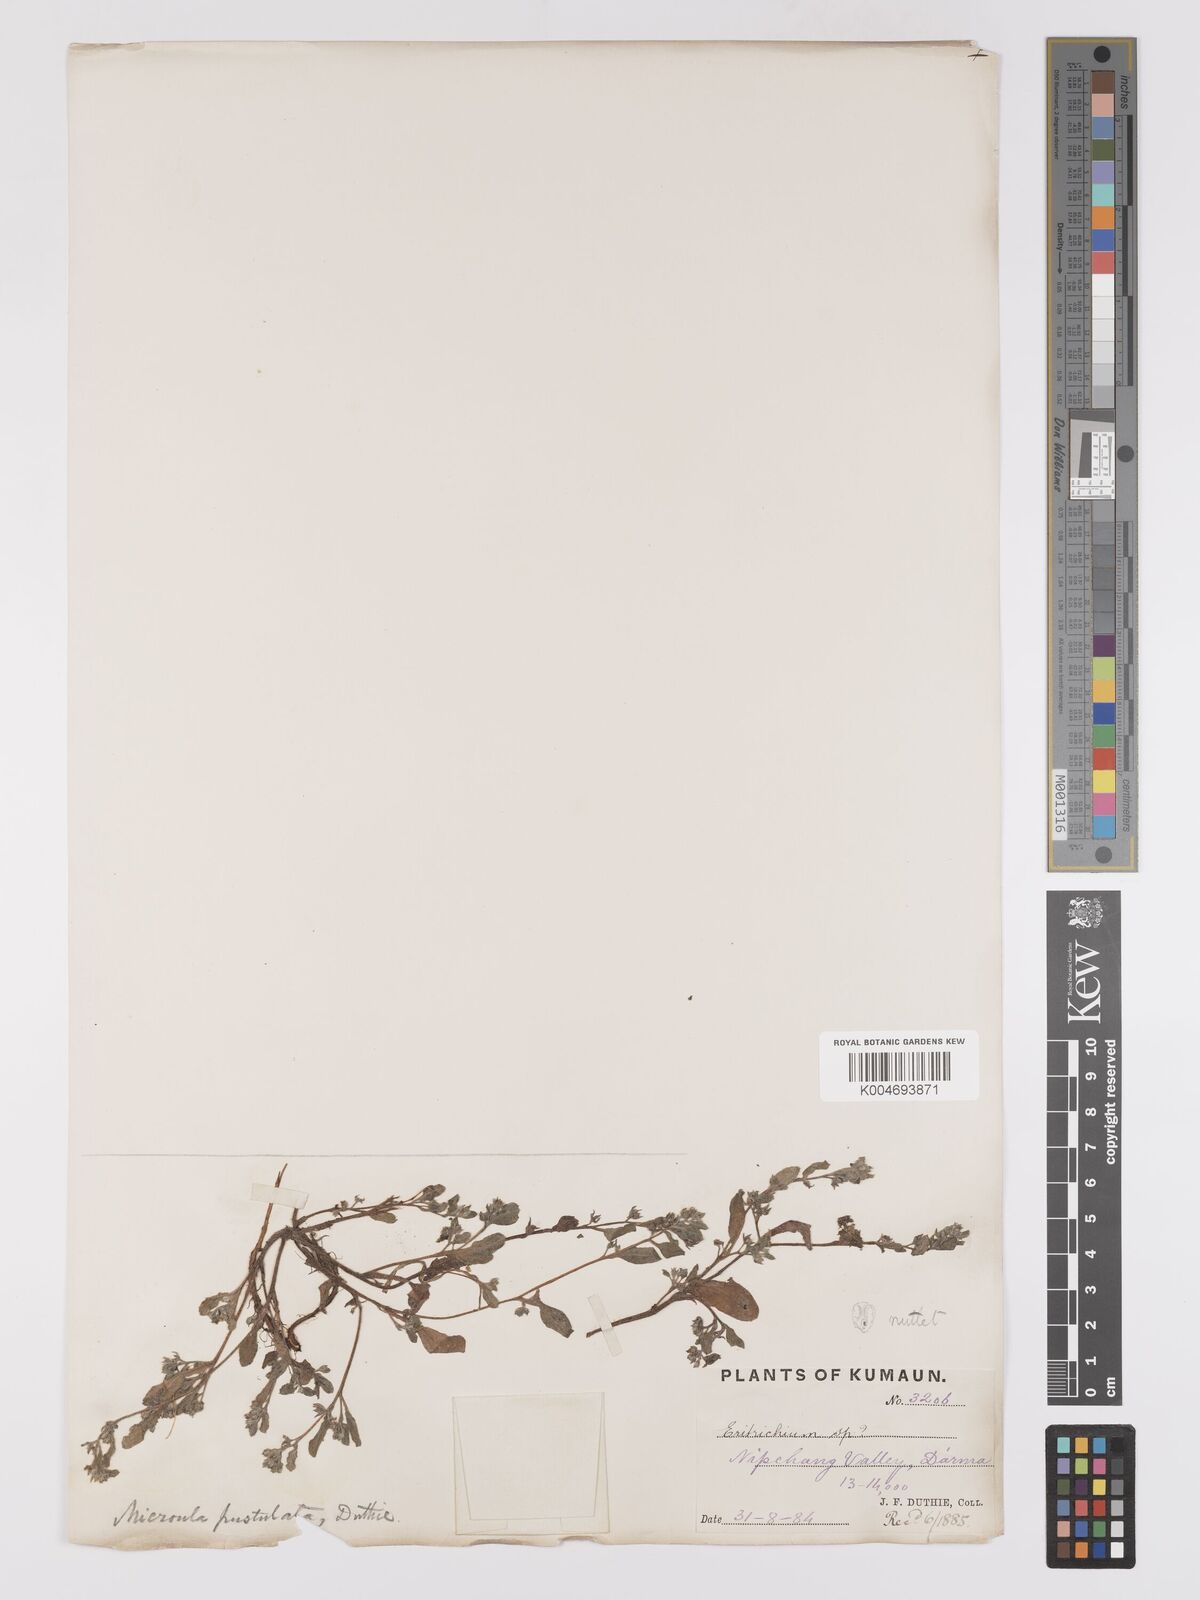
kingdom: Plantae
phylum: Tracheophyta
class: Magnoliopsida
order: Boraginales
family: Boraginaceae
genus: Microula
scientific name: Microula pustulosa
